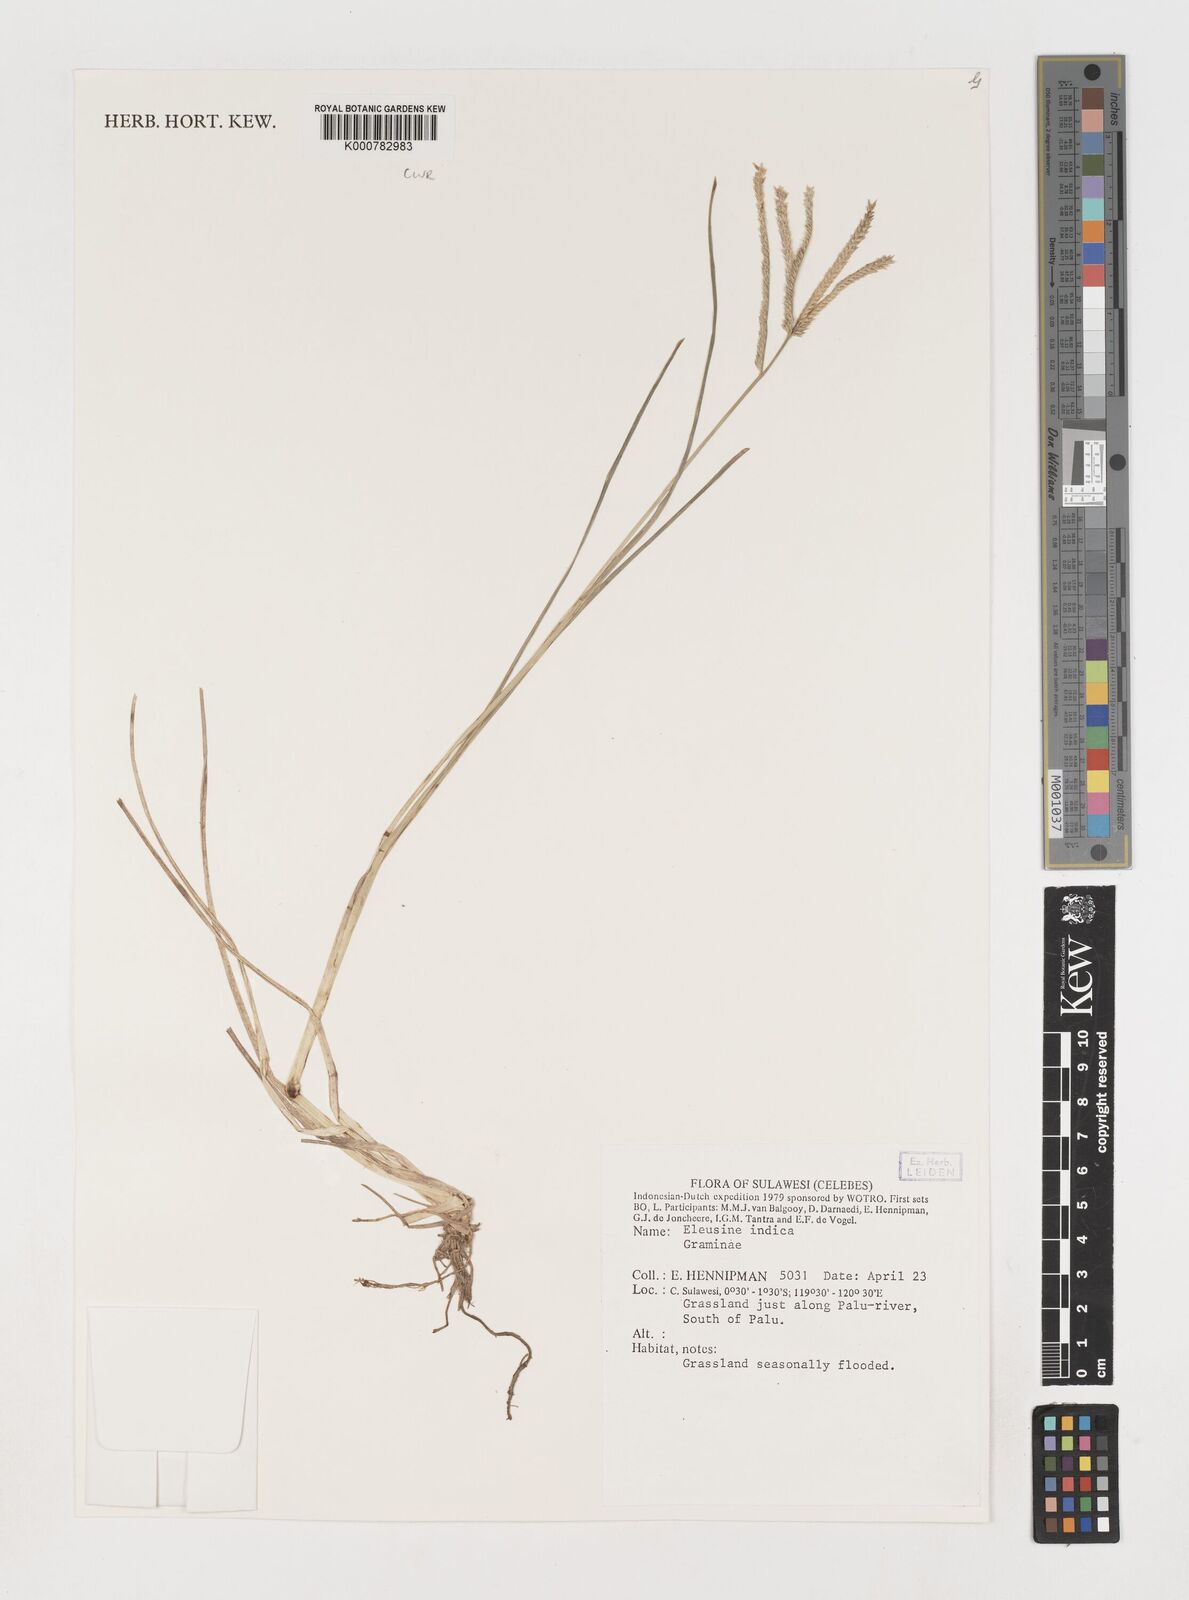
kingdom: Plantae
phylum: Tracheophyta
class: Liliopsida
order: Poales
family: Poaceae
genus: Eleusine
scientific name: Eleusine indica
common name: Yard-grass
